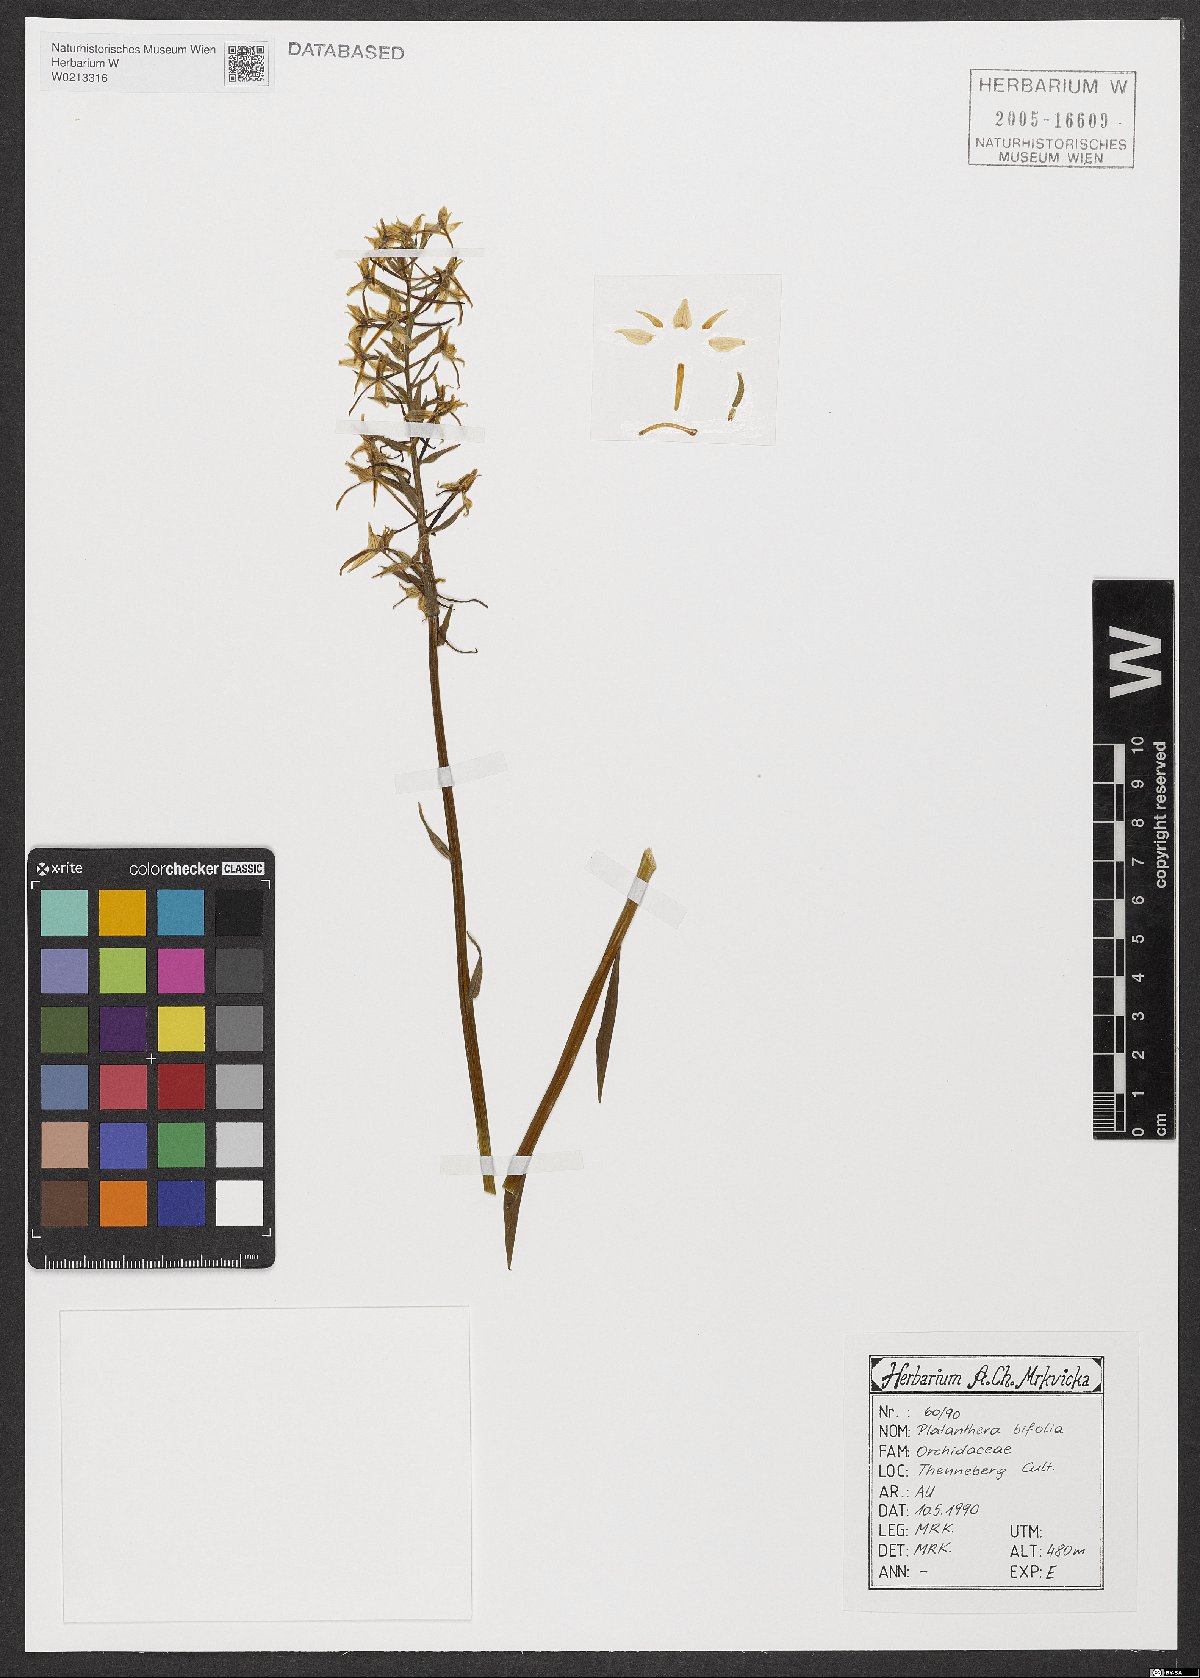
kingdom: Plantae
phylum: Tracheophyta
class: Liliopsida
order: Asparagales
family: Orchidaceae
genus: Platanthera
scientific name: Platanthera bifolia
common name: Lesser butterfly-orchid
